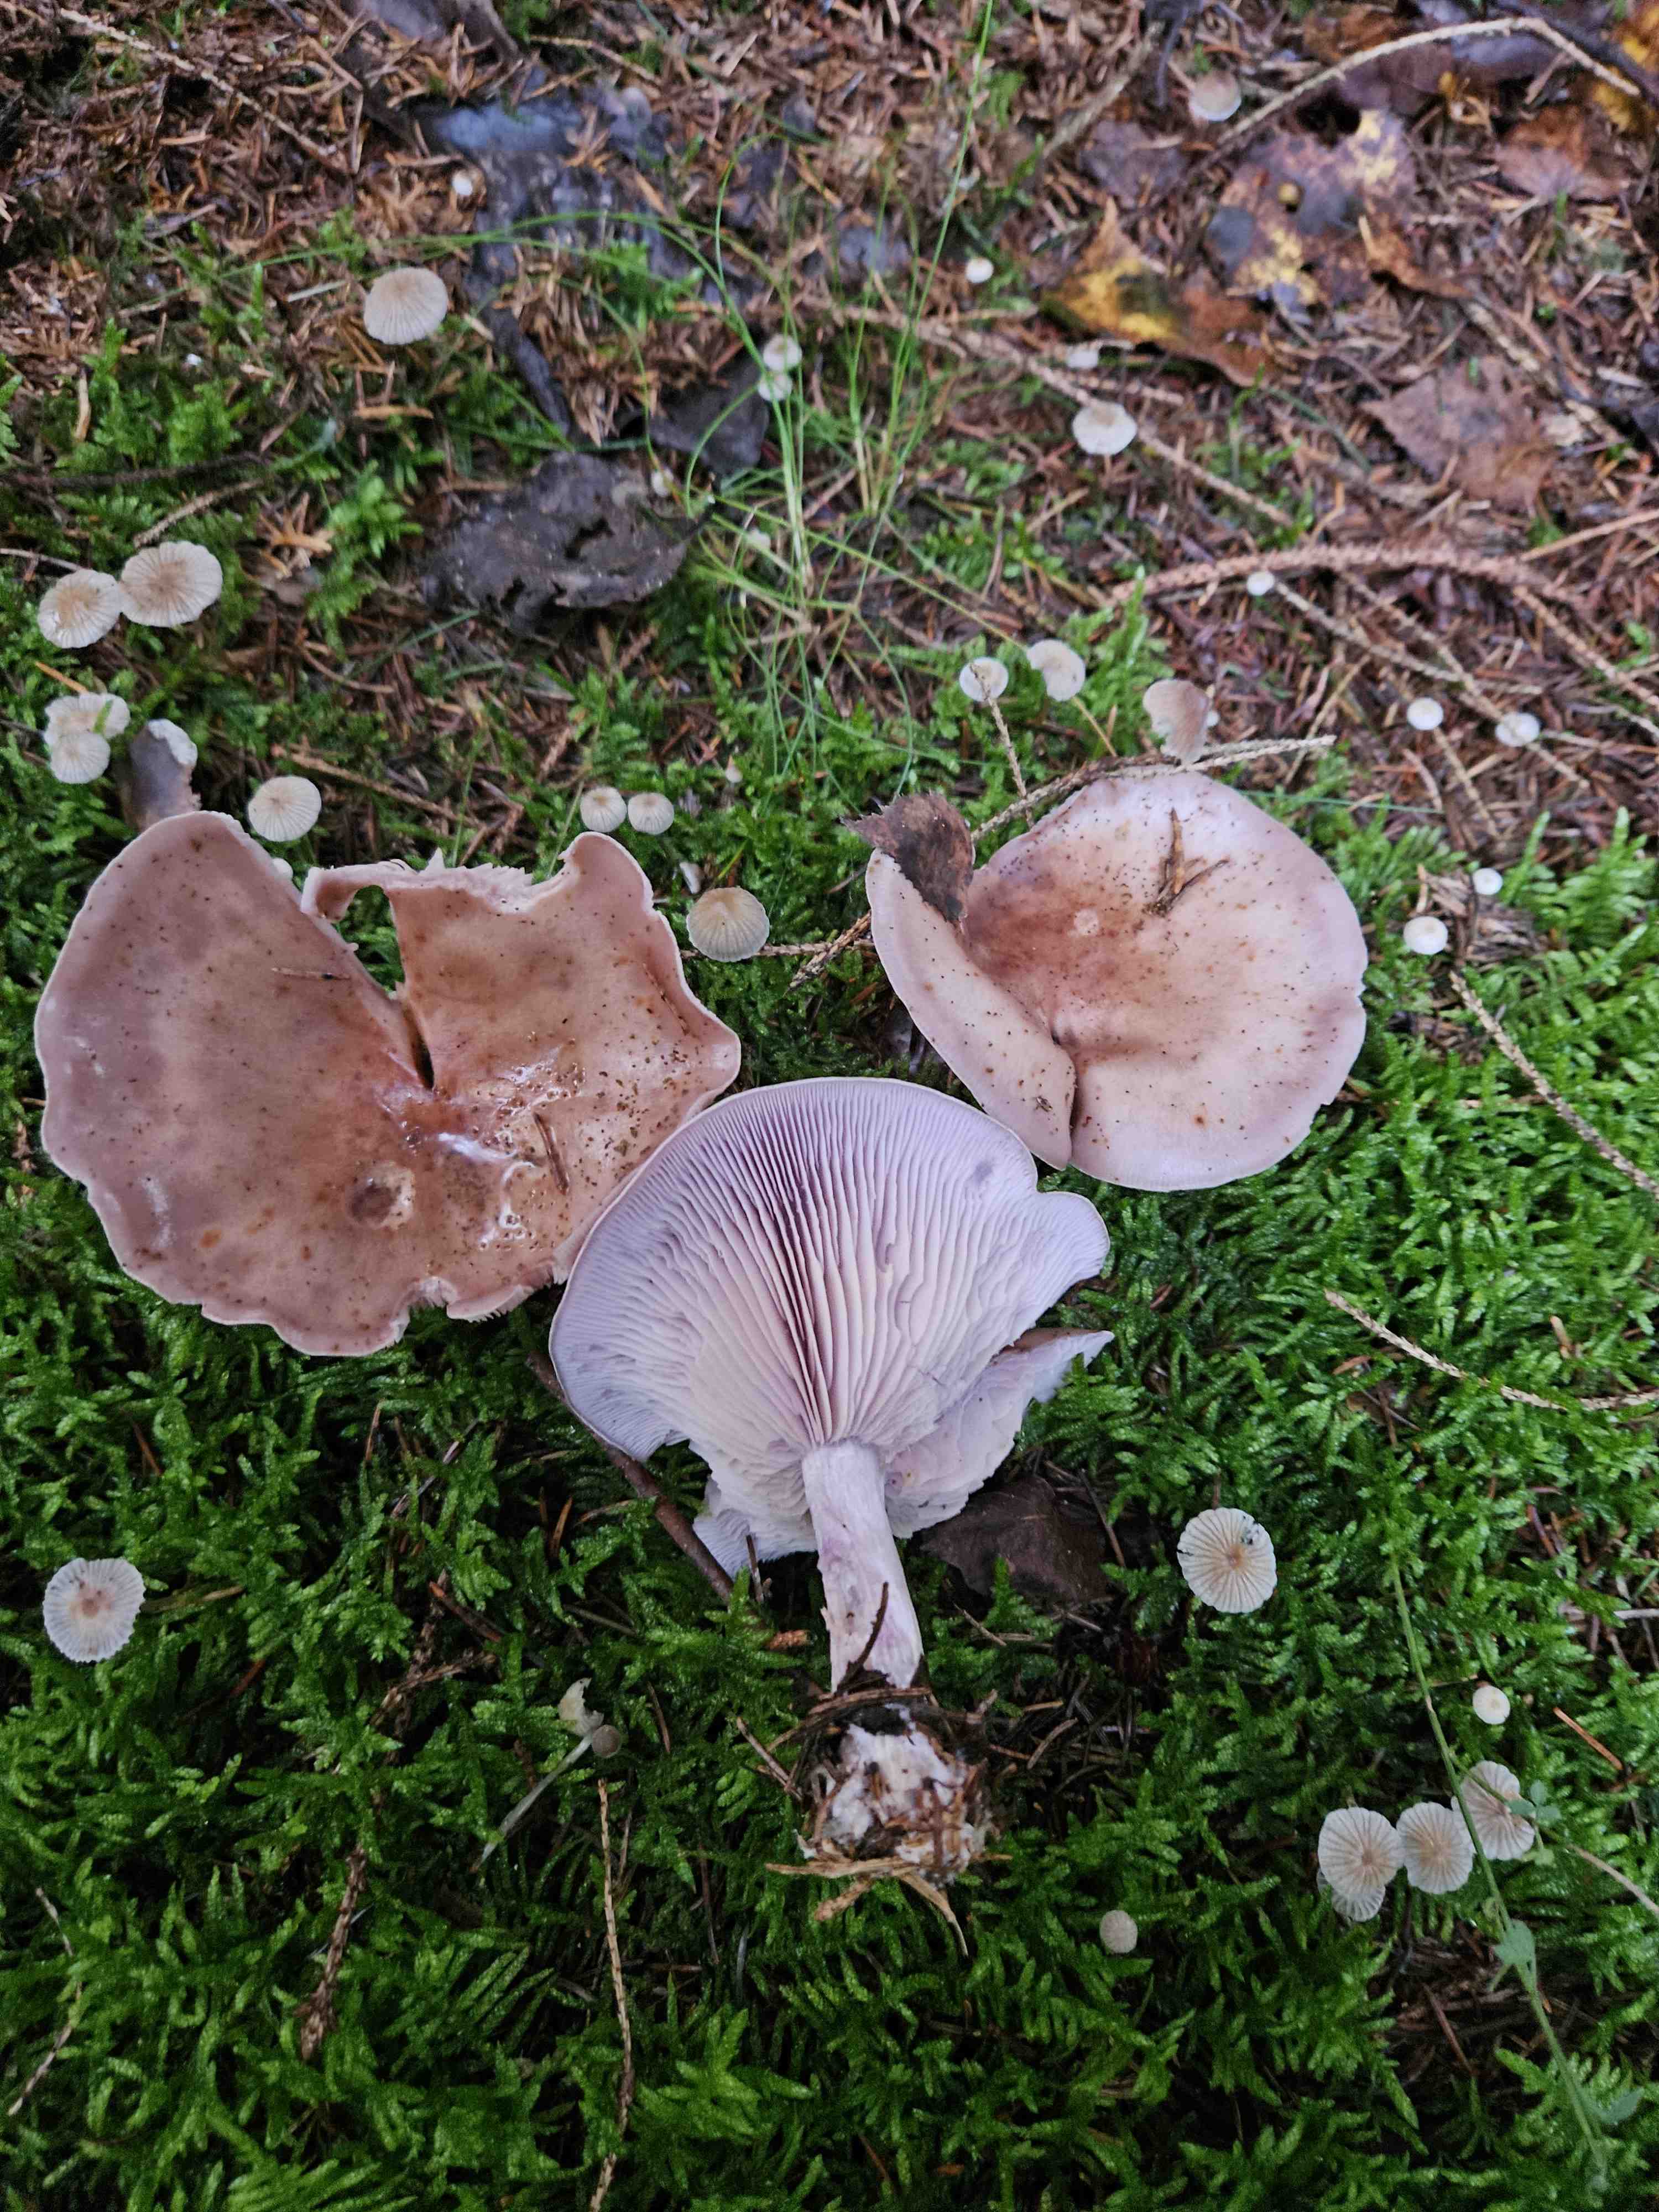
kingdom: Fungi
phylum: Basidiomycota
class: Agaricomycetes
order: Agaricales
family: Tricholomataceae
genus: Lepista
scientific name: Lepista nuda
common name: violet hekseringshat
